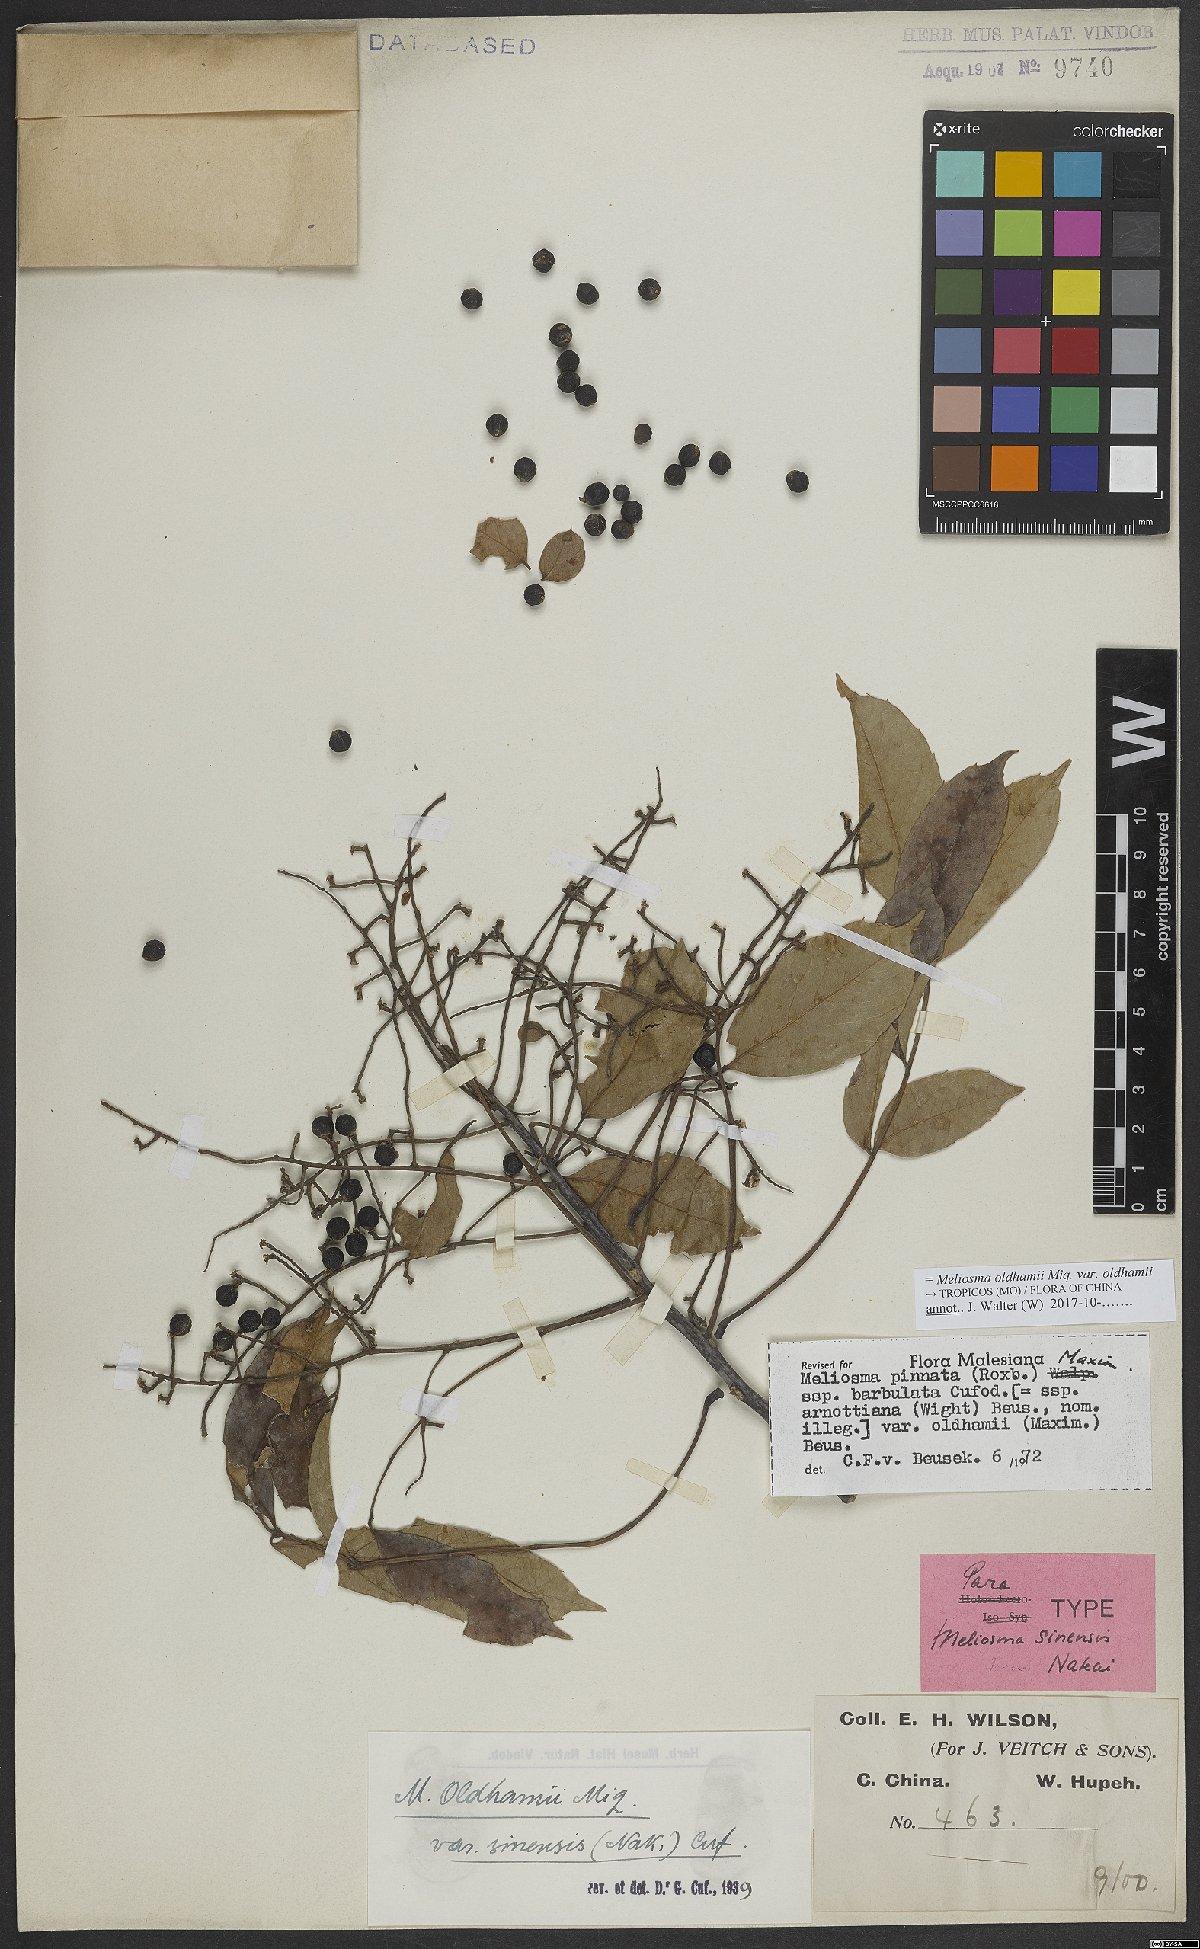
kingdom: Plantae
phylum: Tracheophyta
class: Magnoliopsida
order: Proteales
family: Sabiaceae
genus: Meliosma
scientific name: Meliosma oldhamii
